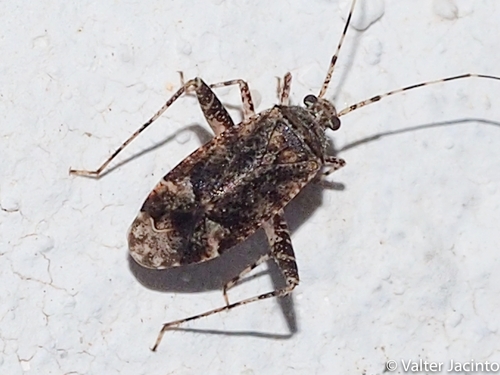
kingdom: Animalia
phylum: Arthropoda
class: Insecta
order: Hemiptera
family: Miridae
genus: Phytocoris
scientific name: Phytocoris viberti
